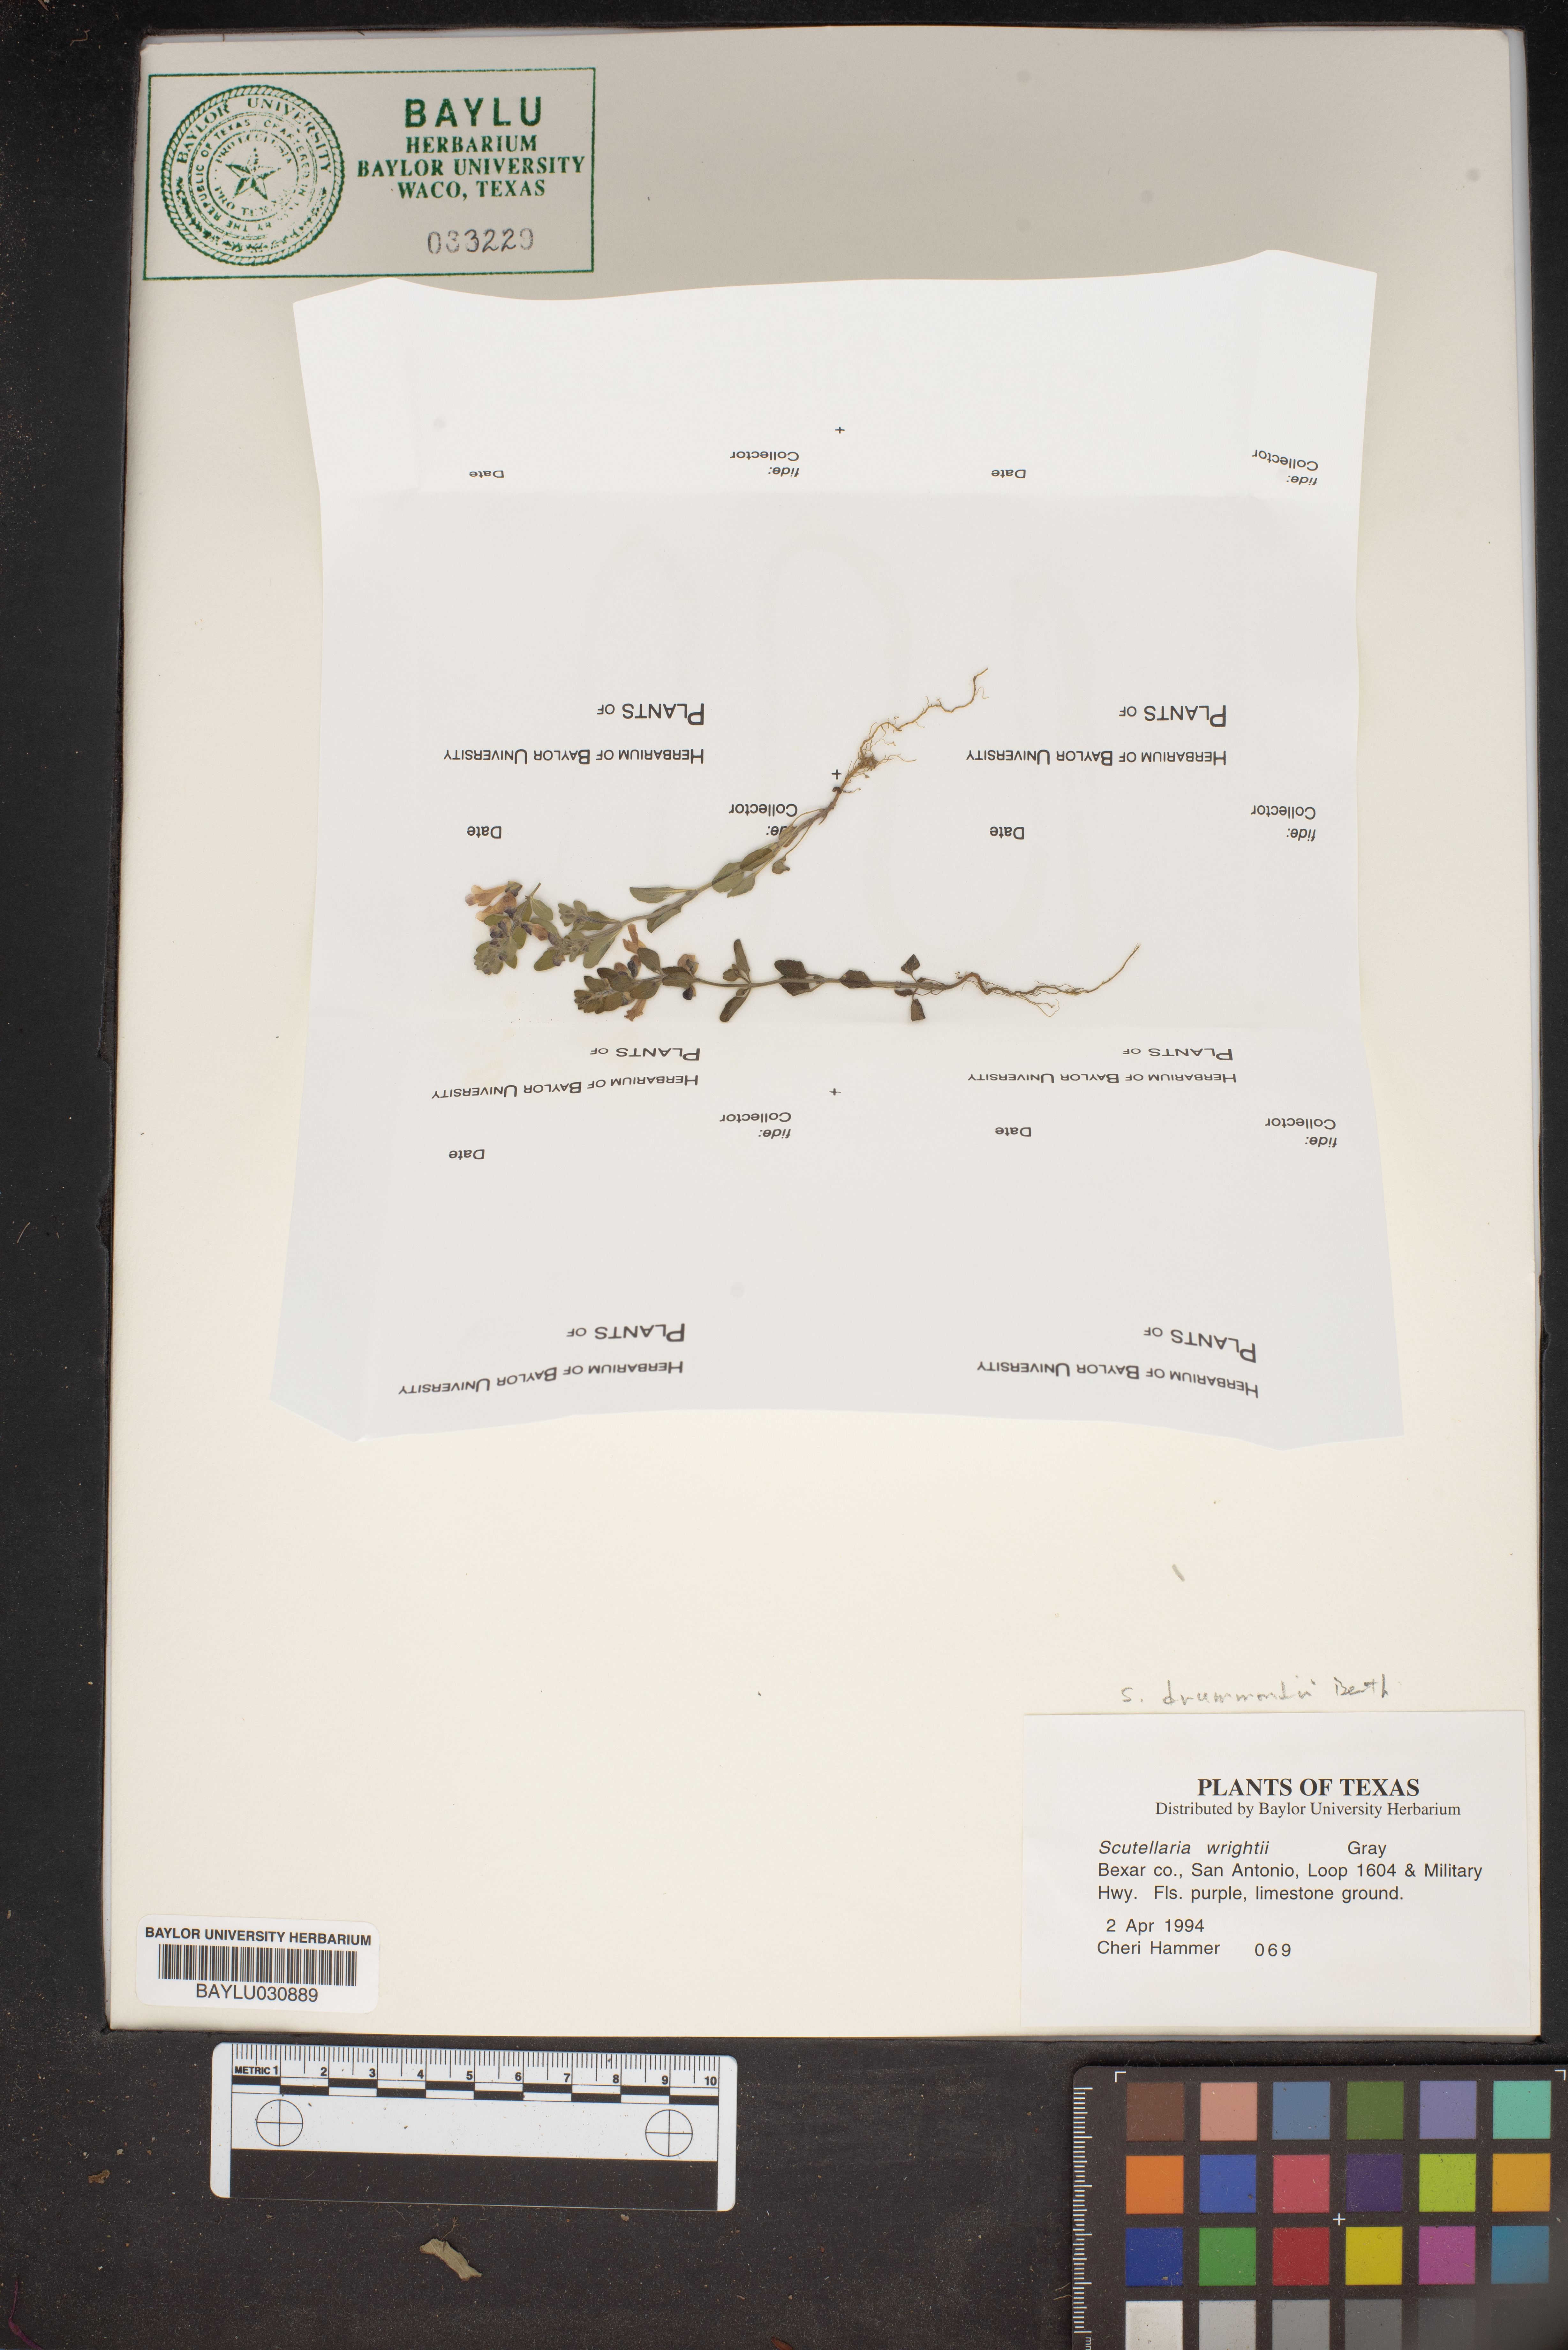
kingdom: Plantae
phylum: Tracheophyta
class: Magnoliopsida
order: Lamiales
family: Lamiaceae
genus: Scutellaria
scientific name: Scutellaria drummondii
